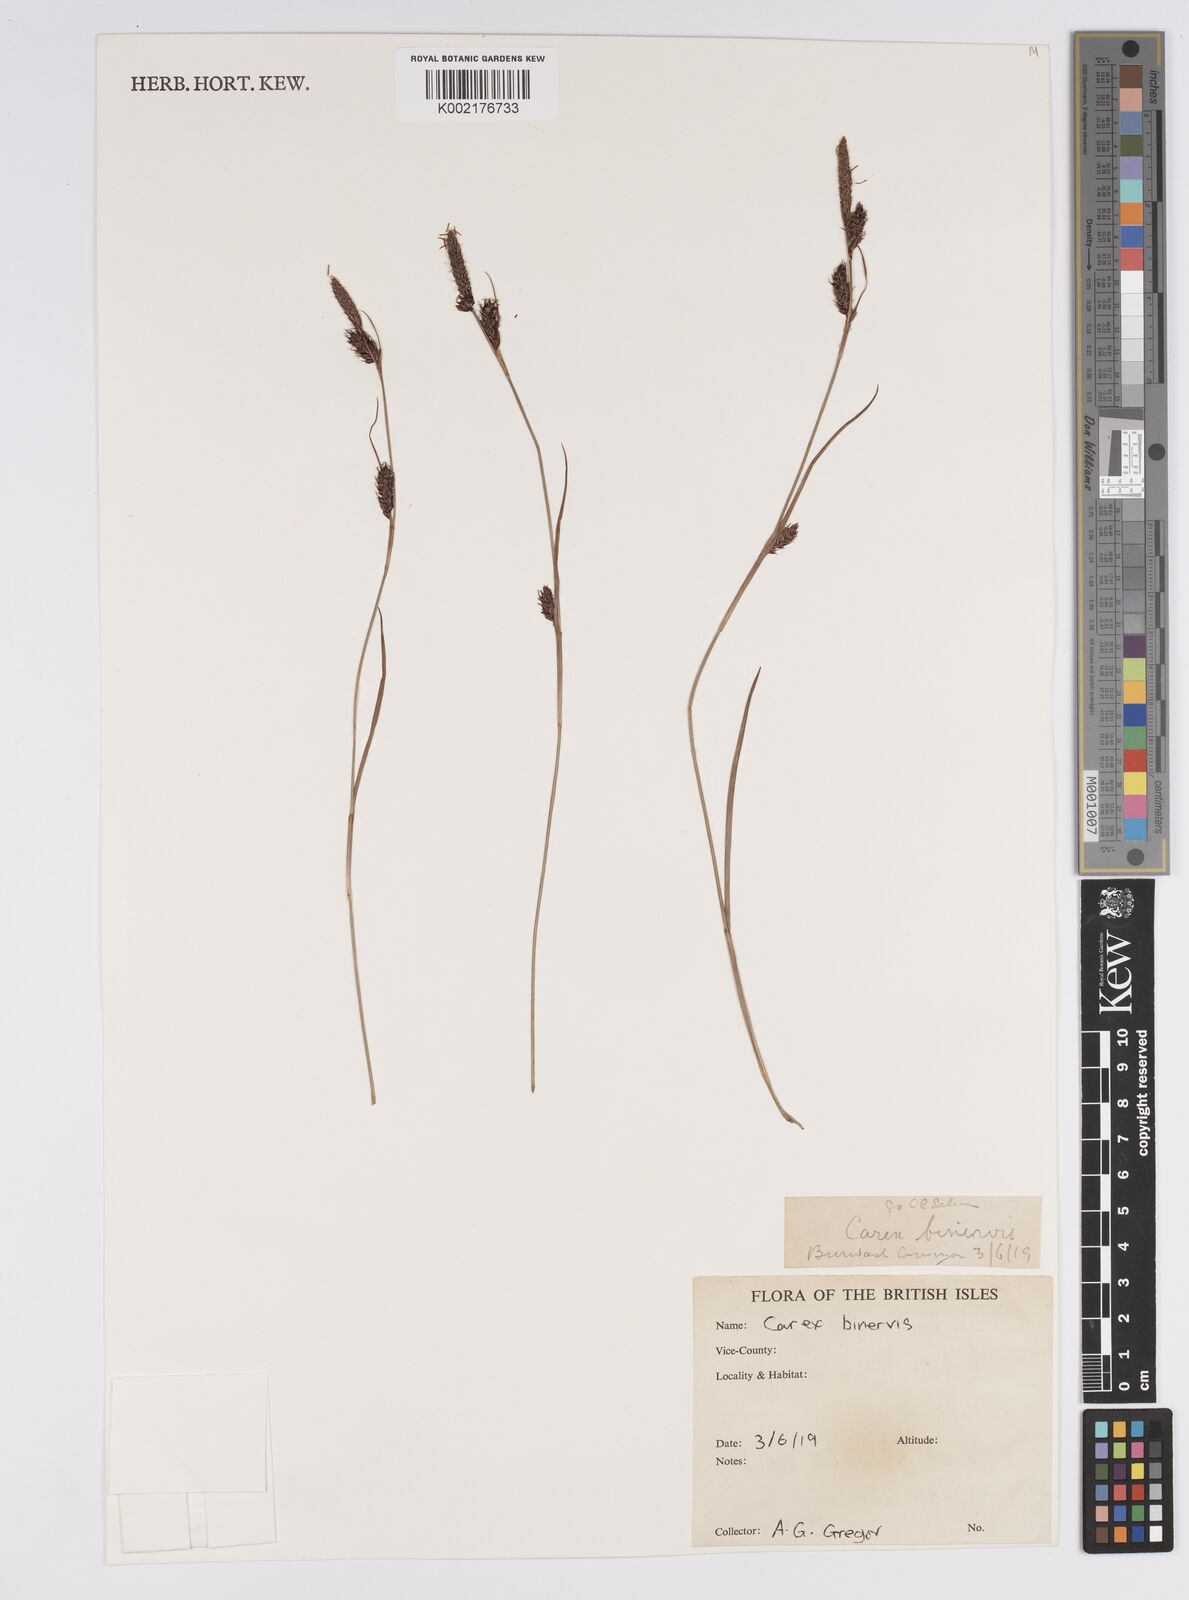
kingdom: Plantae
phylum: Tracheophyta
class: Liliopsida
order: Poales
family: Cyperaceae
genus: Carex
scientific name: Carex binervis
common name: Green-ribbed sedge
